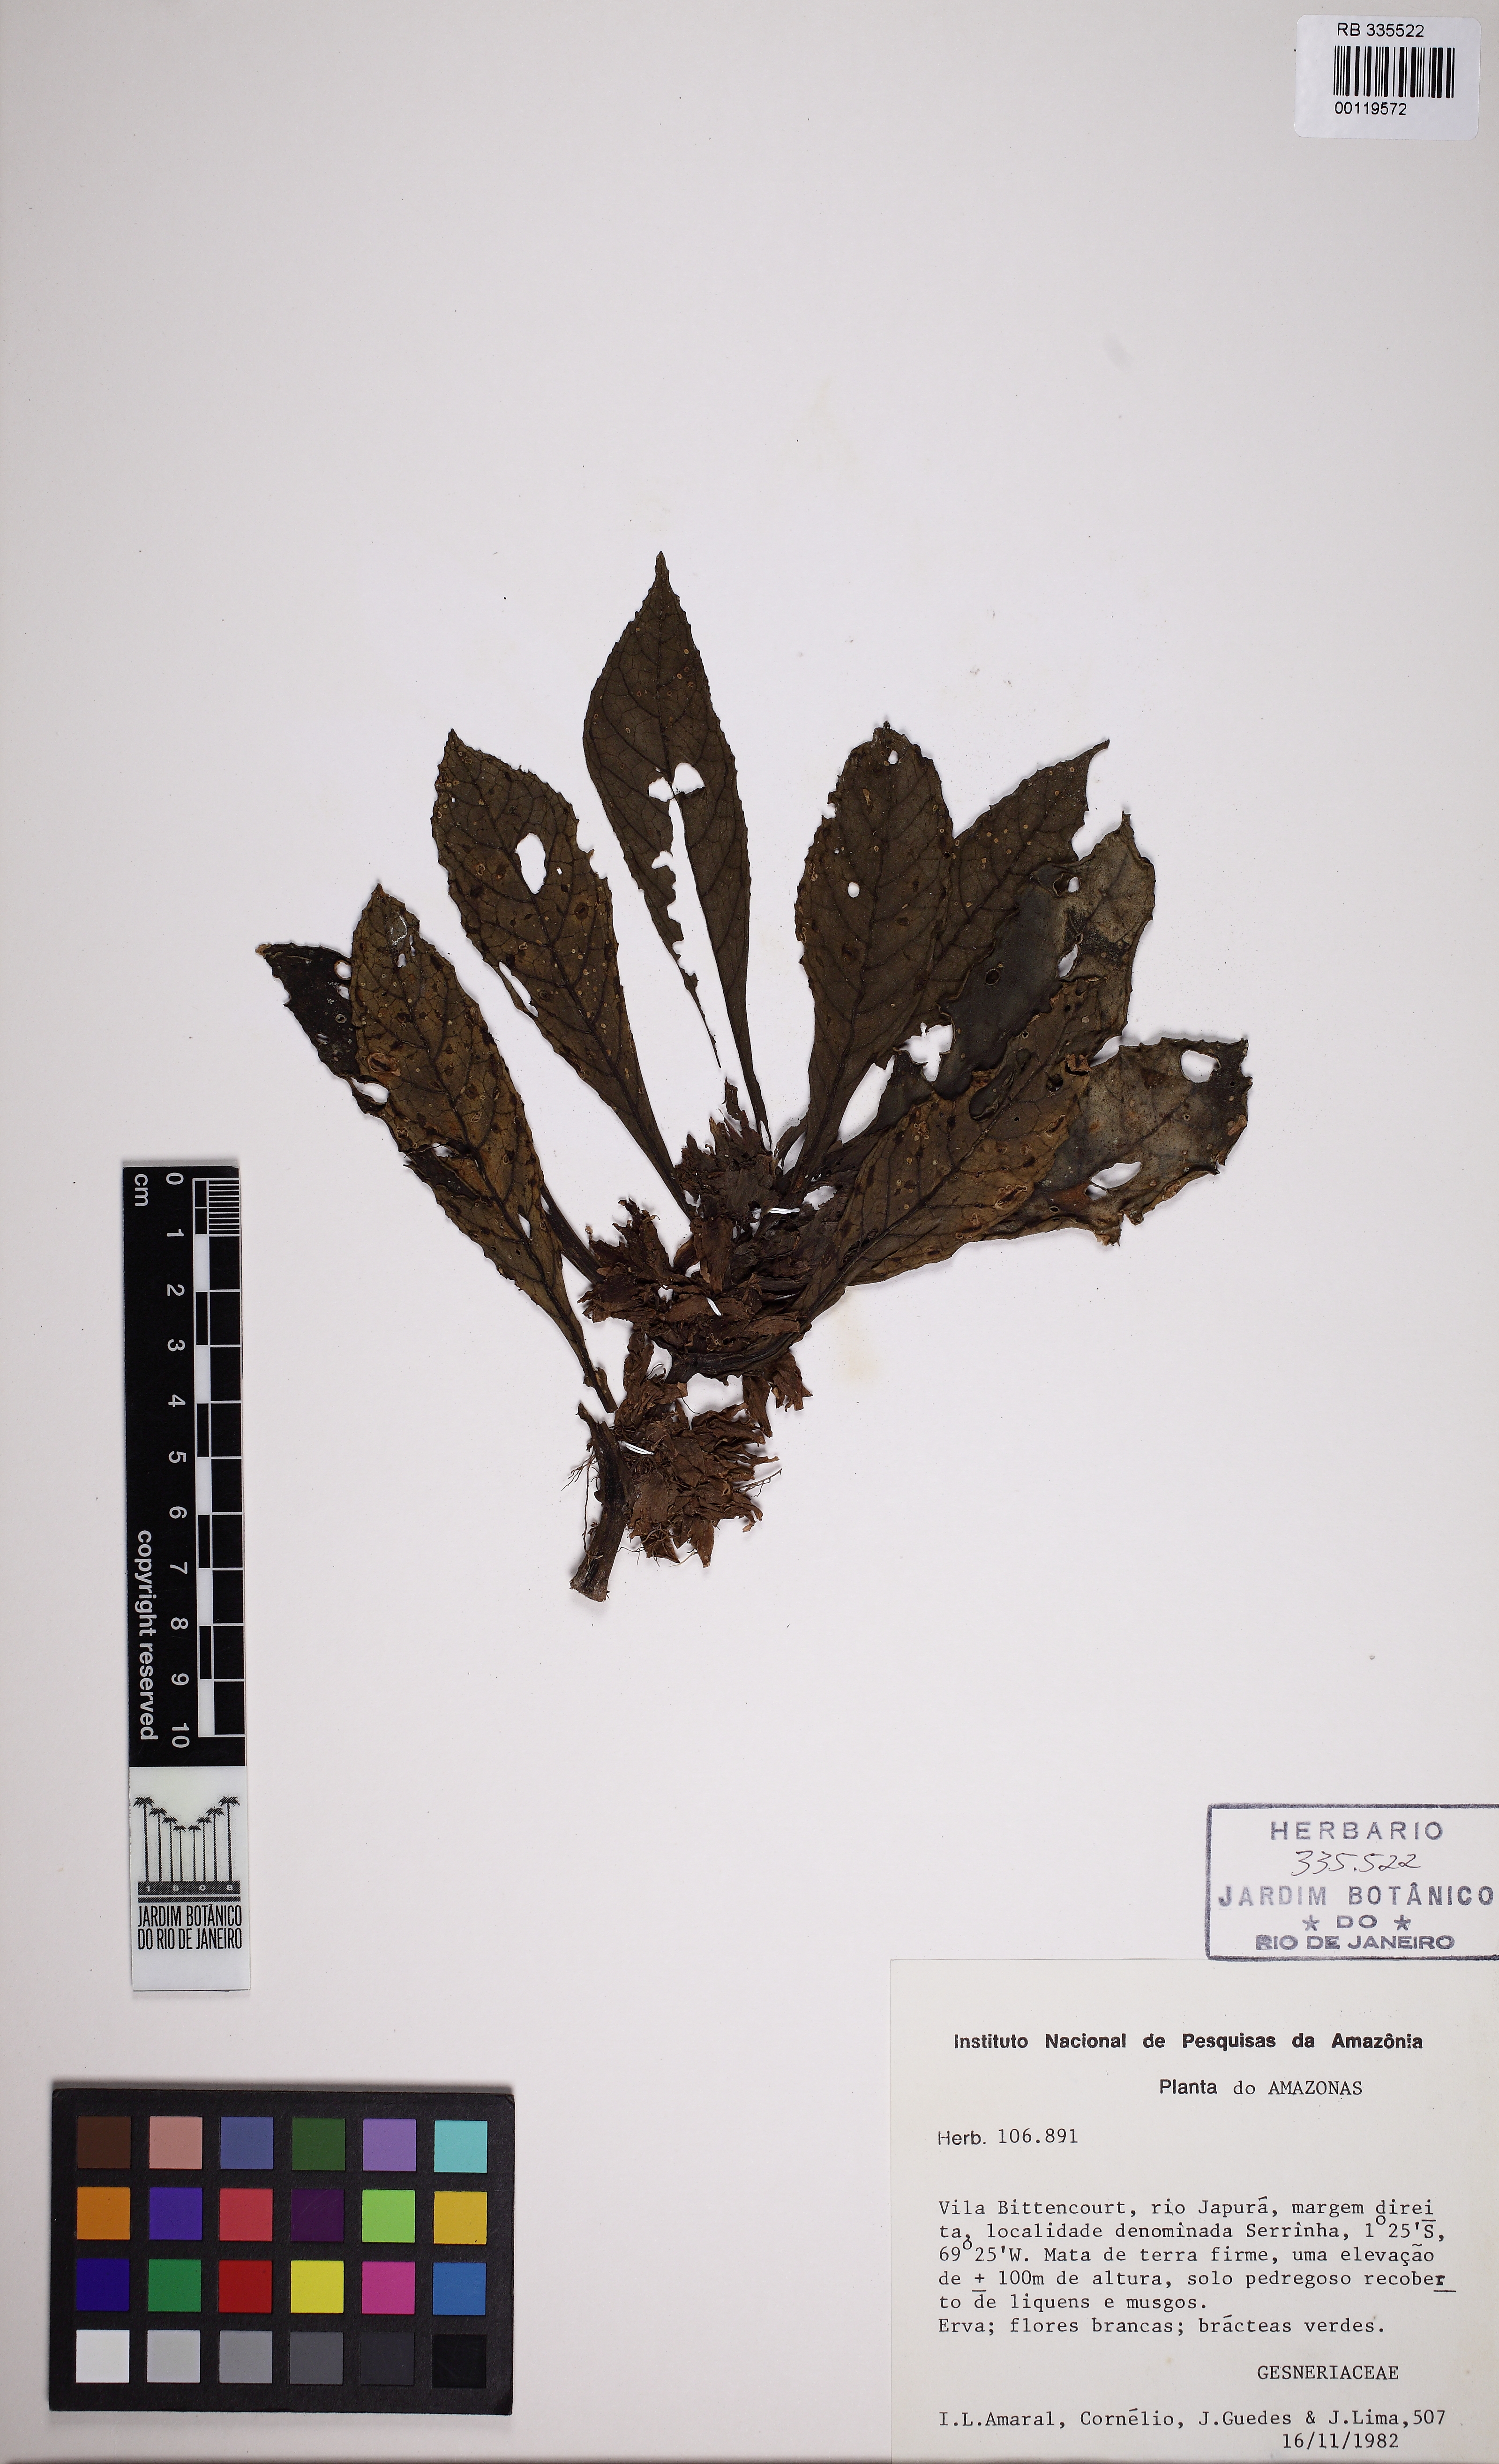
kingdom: Plantae
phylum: Tracheophyta
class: Magnoliopsida
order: Lamiales
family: Gesneriaceae
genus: Nautilocalyx
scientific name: Nautilocalyx
